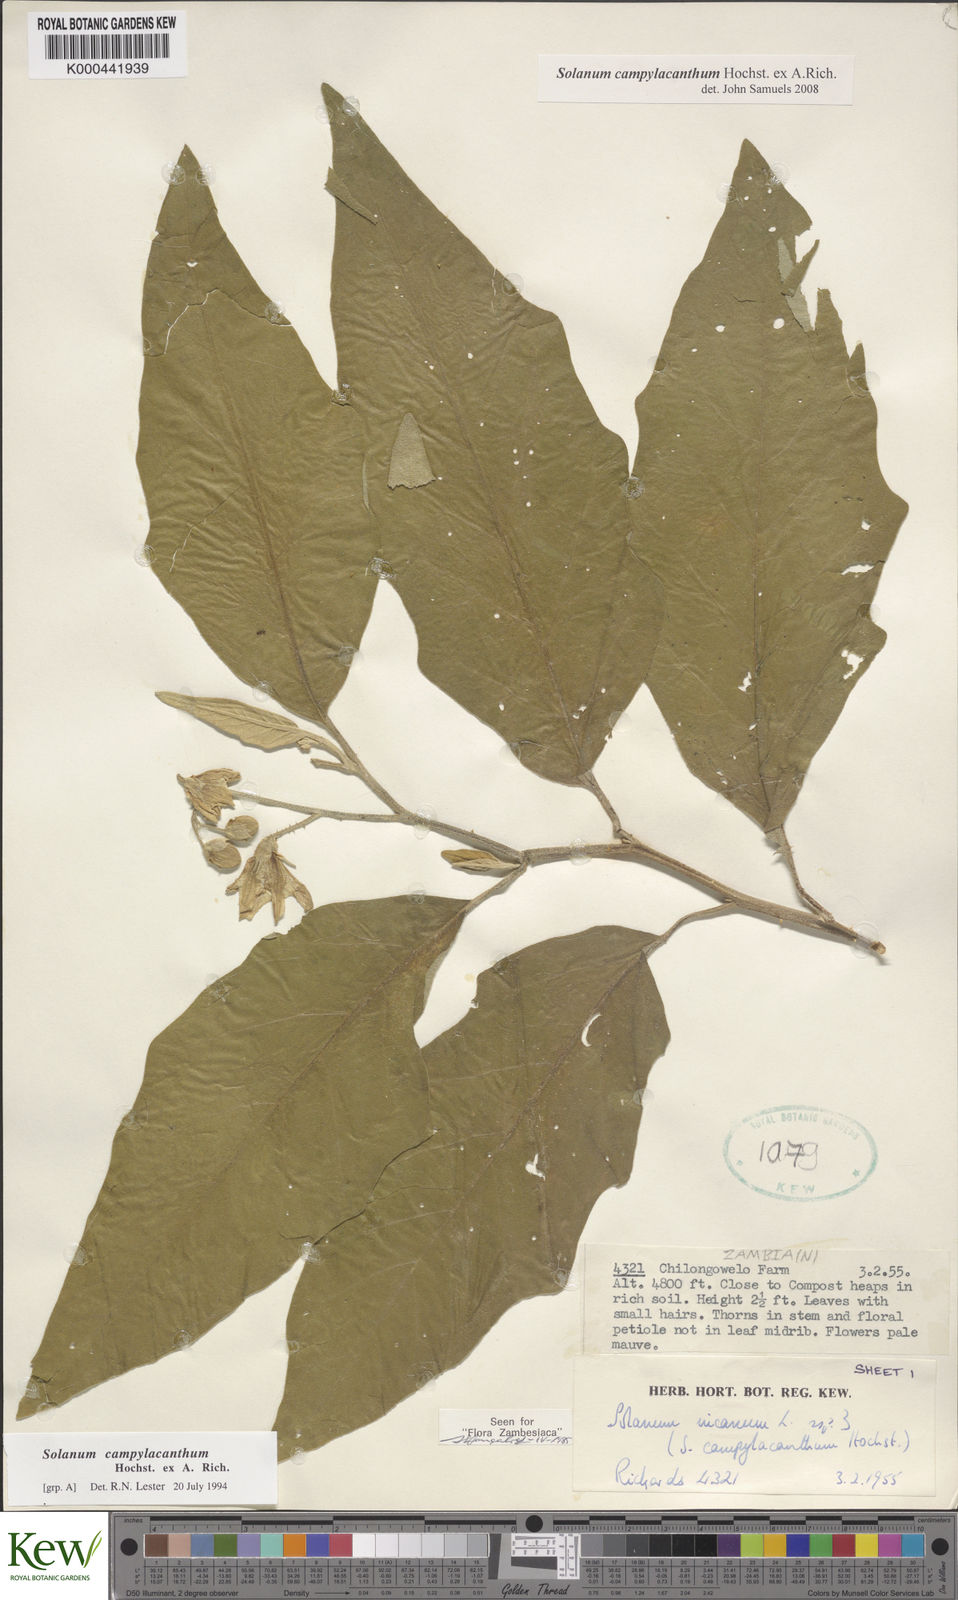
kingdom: Plantae
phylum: Tracheophyta
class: Magnoliopsida
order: Solanales
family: Solanaceae
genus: Solanum
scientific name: Solanum campylacanthum
